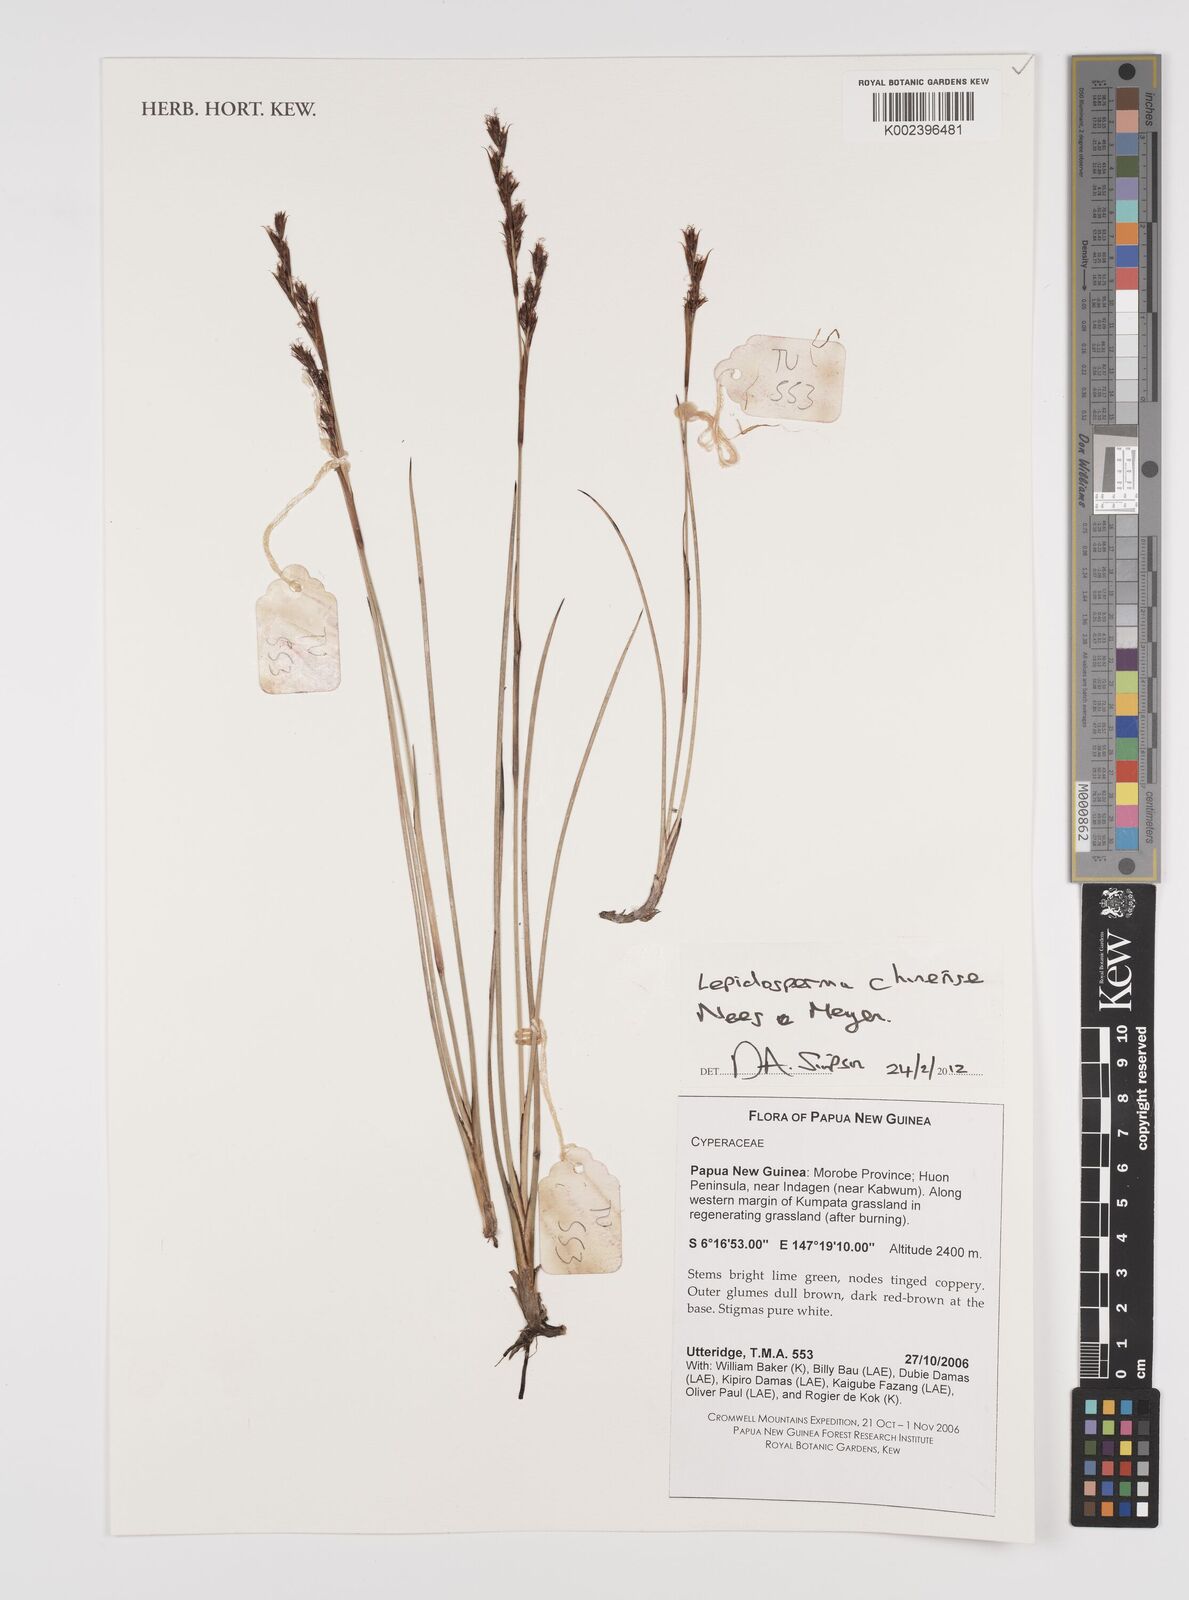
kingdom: Plantae
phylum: Tracheophyta
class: Liliopsida
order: Poales
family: Cyperaceae
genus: Lepidosperma
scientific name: Lepidosperma chinense
